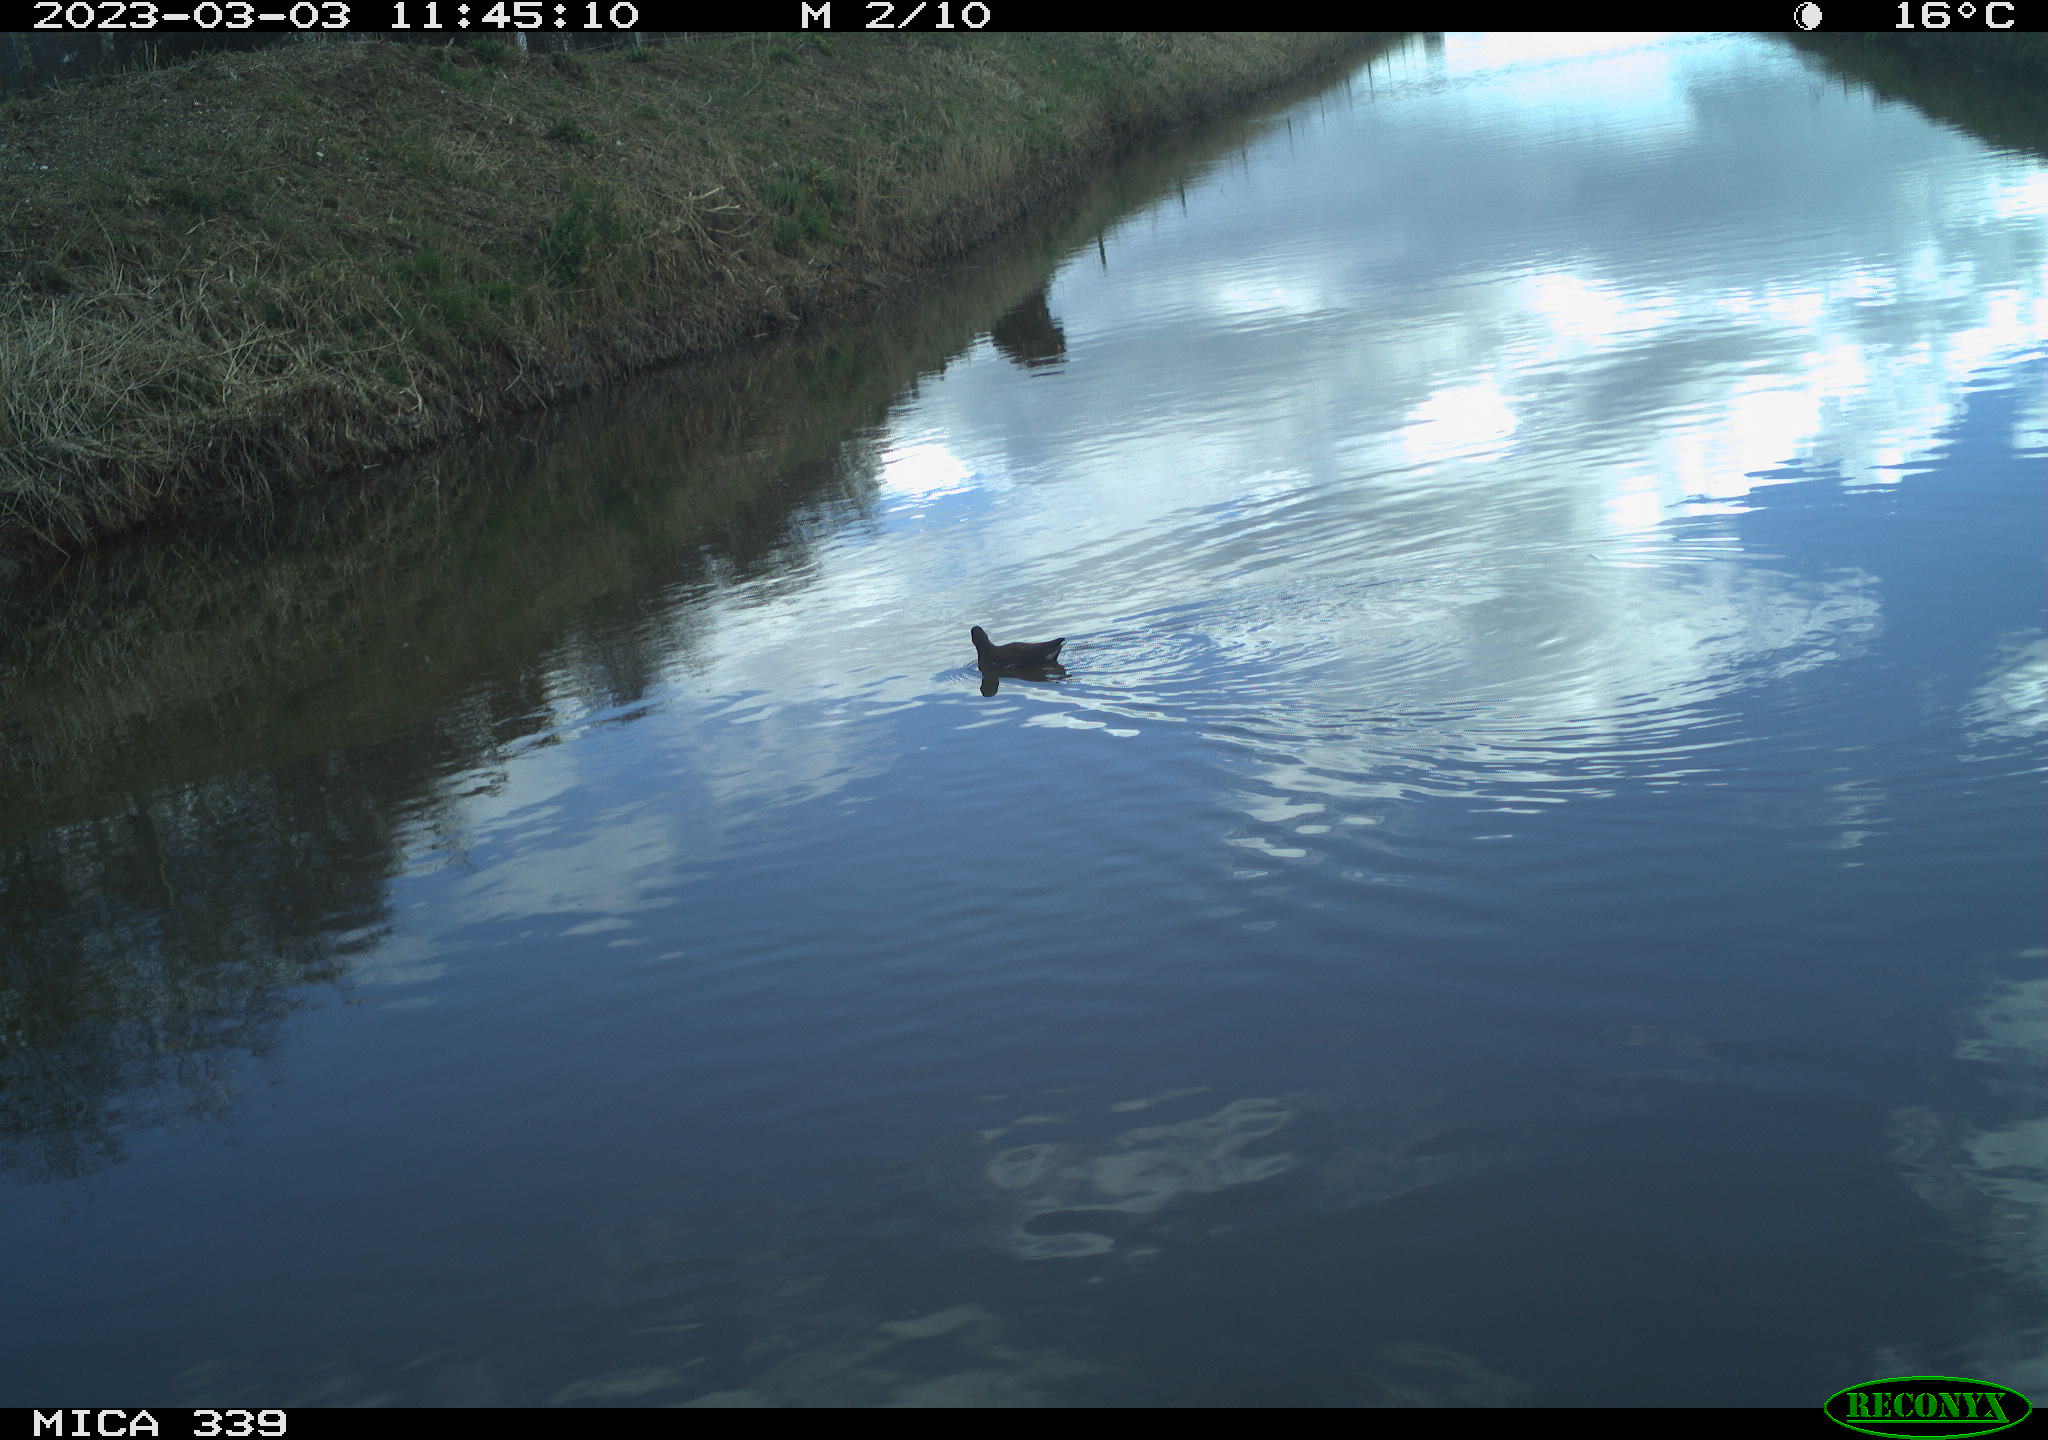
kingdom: Animalia
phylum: Chordata
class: Aves
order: Gruiformes
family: Rallidae
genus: Gallinula
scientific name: Gallinula chloropus
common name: Common moorhen
